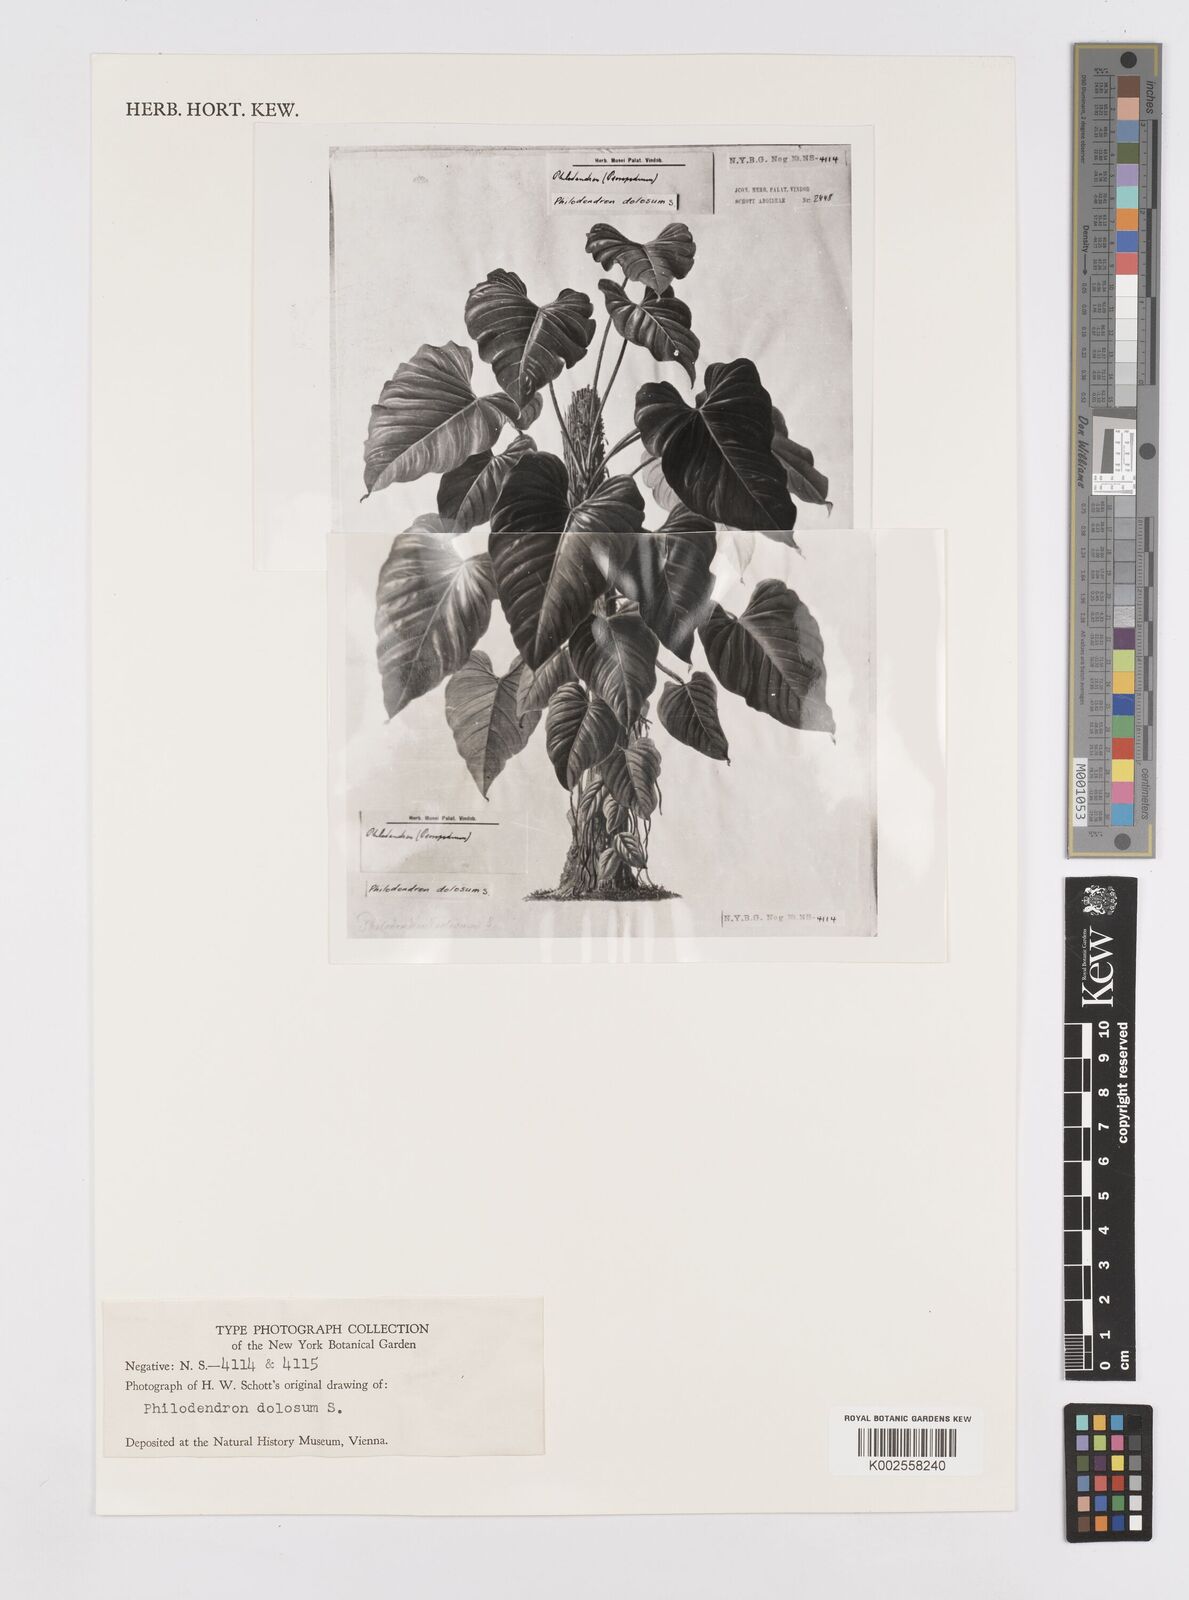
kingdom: Plantae
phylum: Tracheophyta
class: Liliopsida
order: Alismatales
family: Araceae
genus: Philodendron
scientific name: Philodendron ornatum
